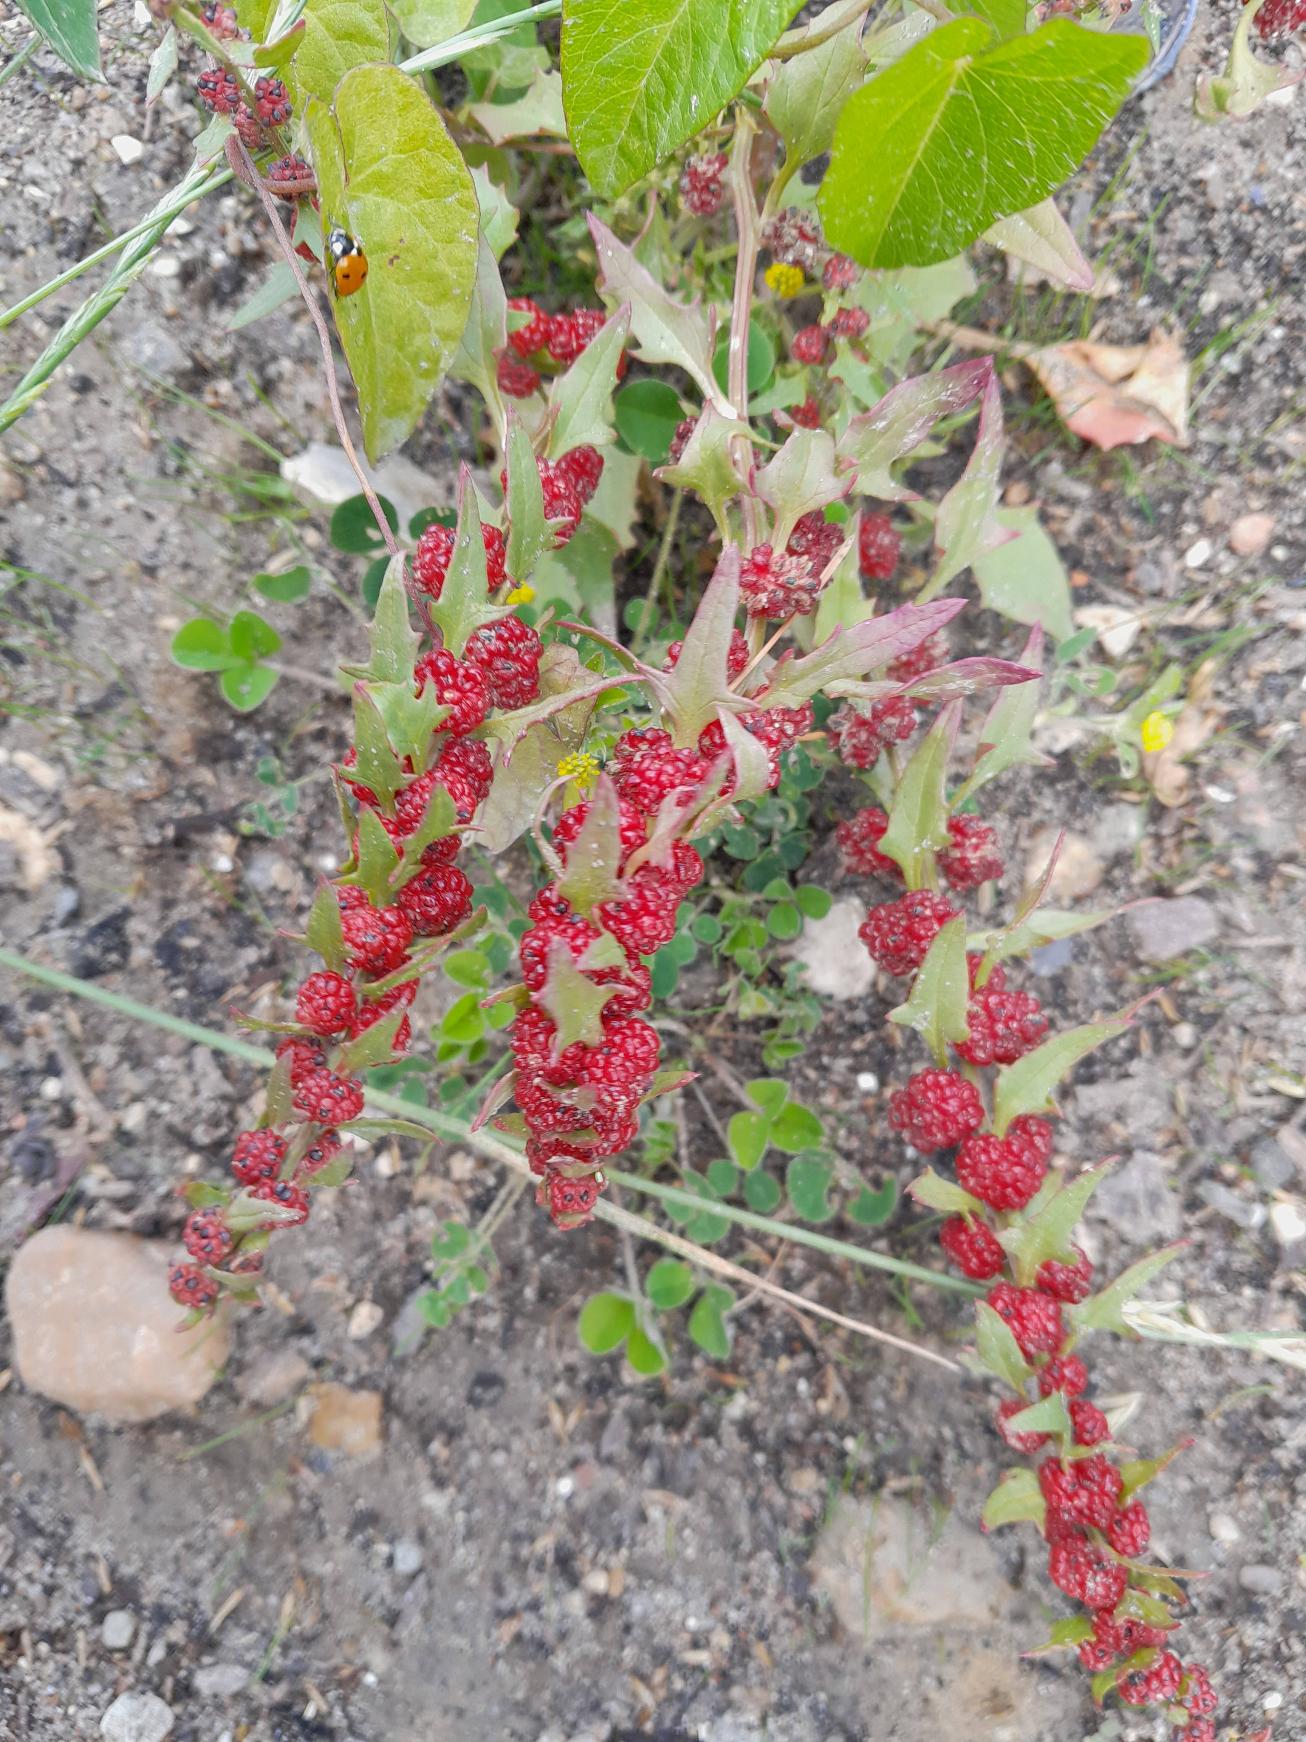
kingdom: Plantae
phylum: Tracheophyta
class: Magnoliopsida
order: Caryophyllales
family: Amaranthaceae
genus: Blitum
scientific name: Blitum virgatum
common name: Aks-jordbærspinat
